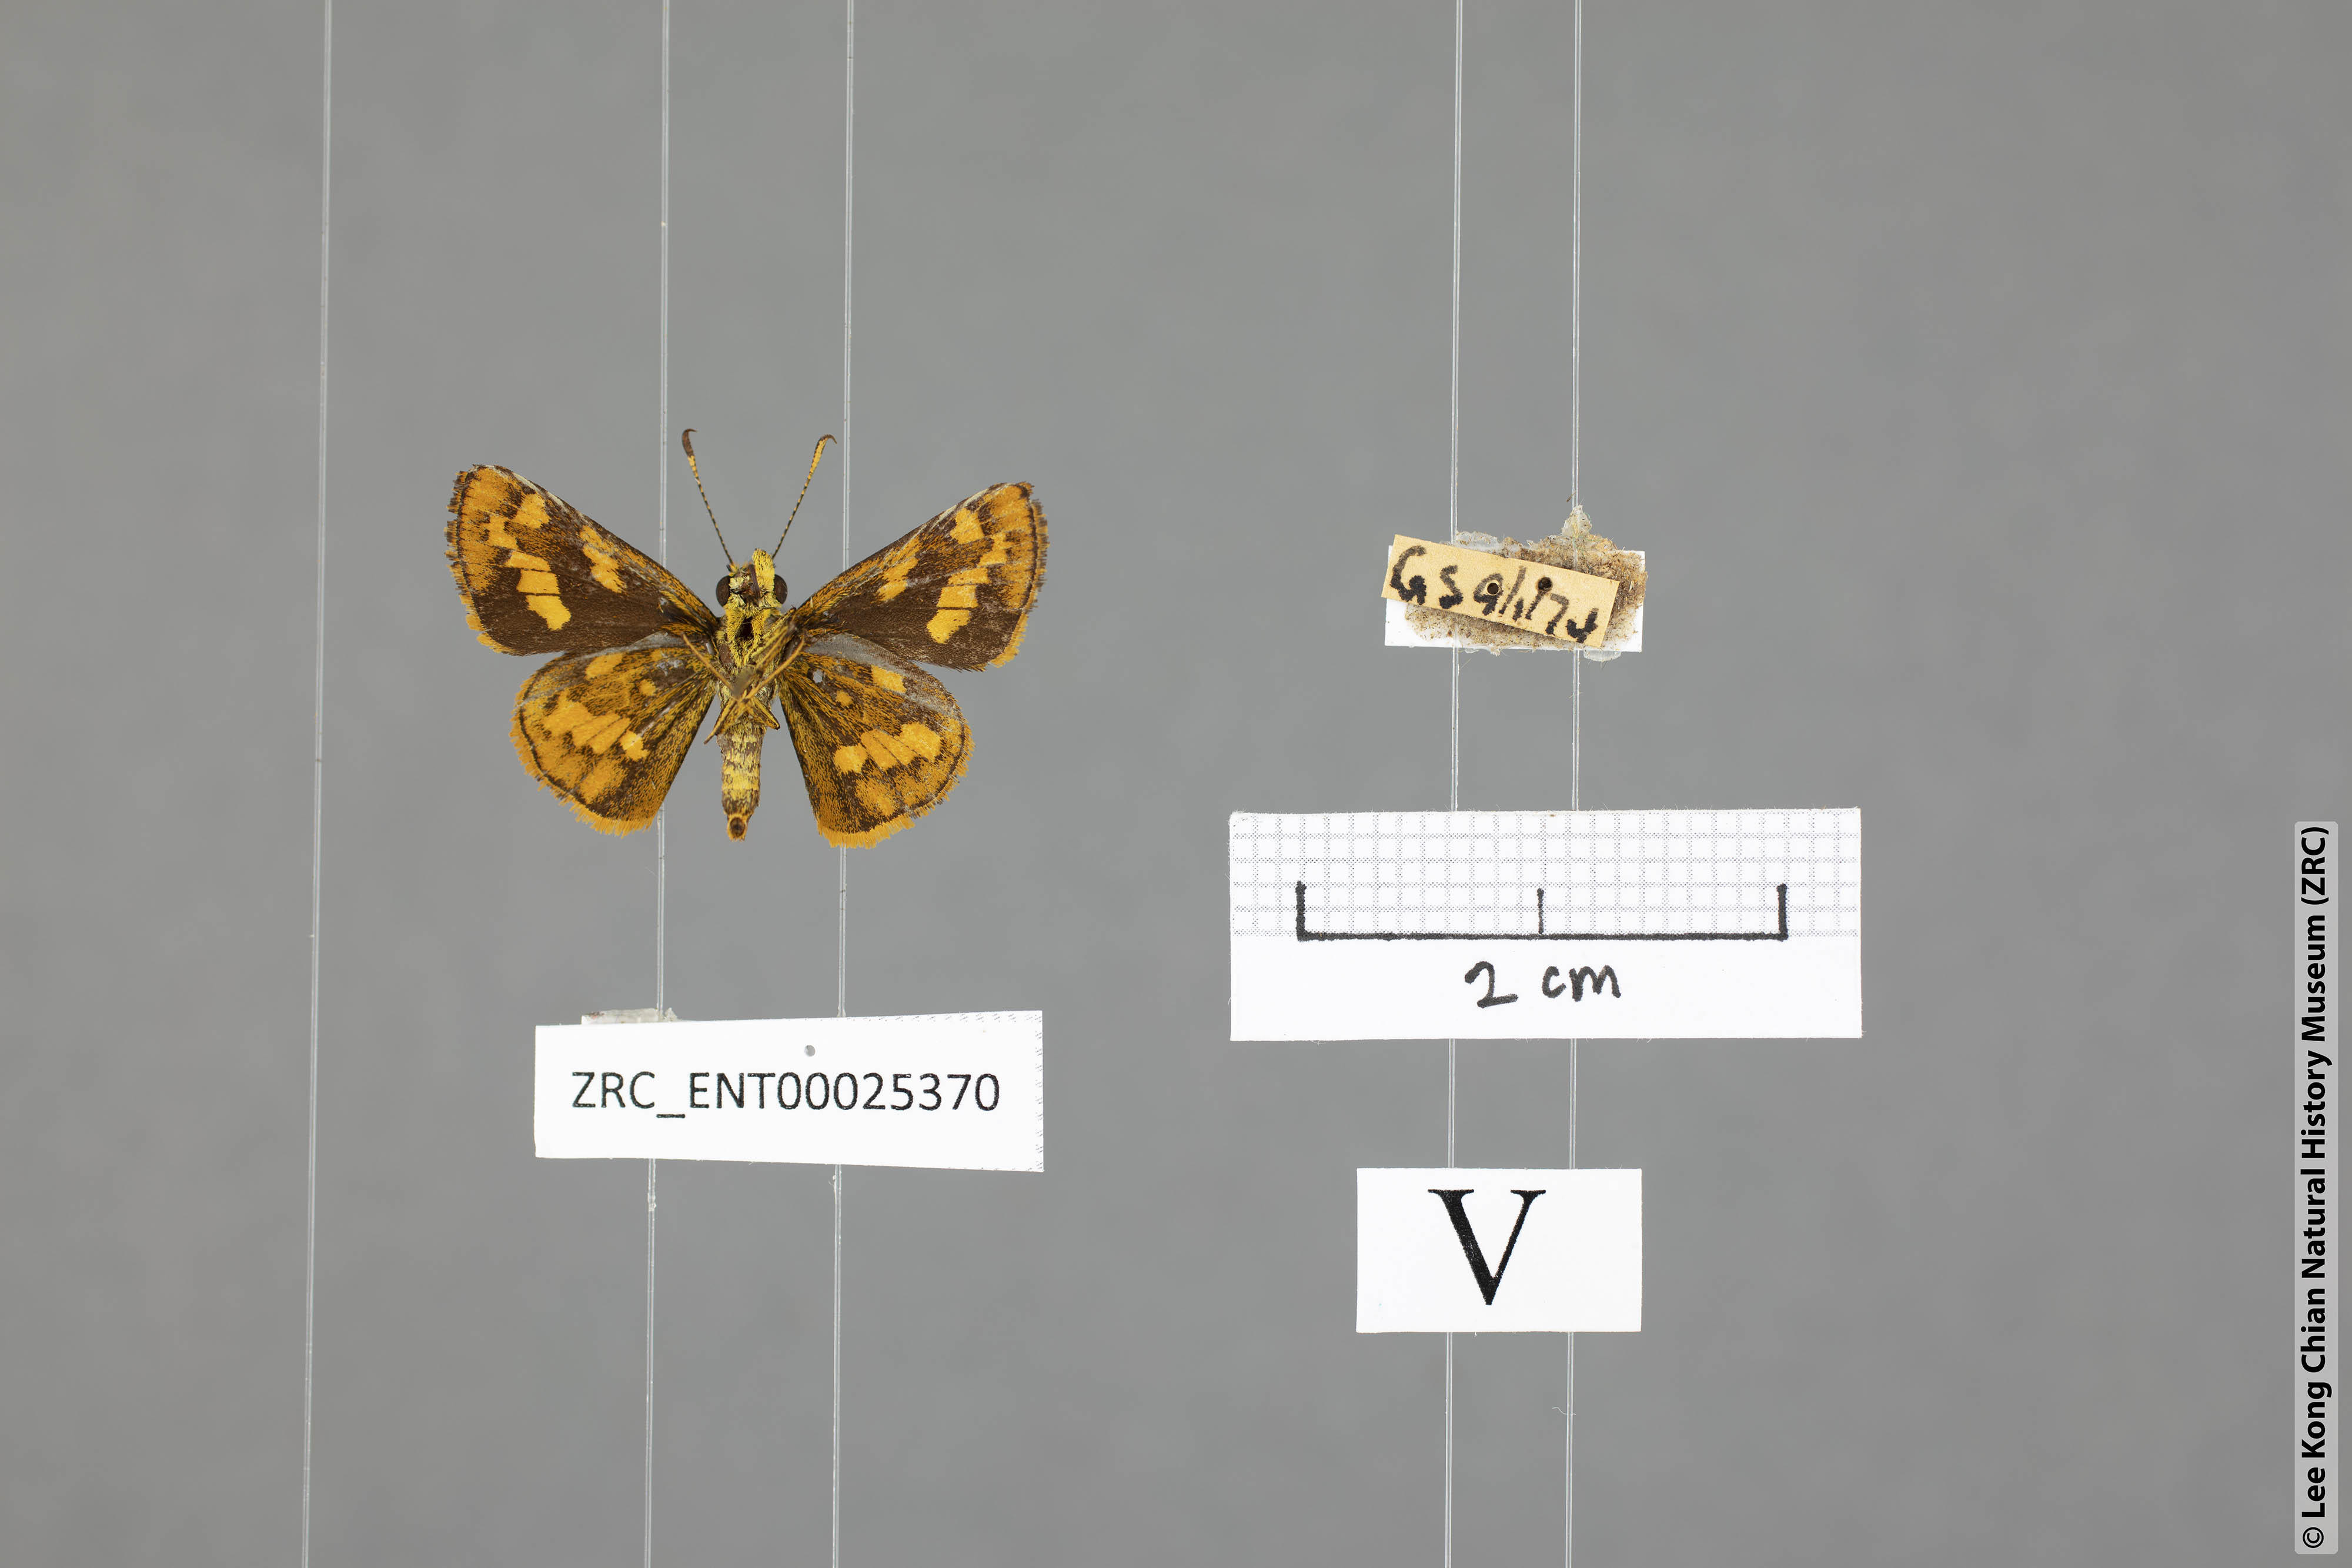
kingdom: Animalia
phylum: Arthropoda
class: Insecta
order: Lepidoptera
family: Hesperiidae
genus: Potanthus
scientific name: Potanthus ganda
